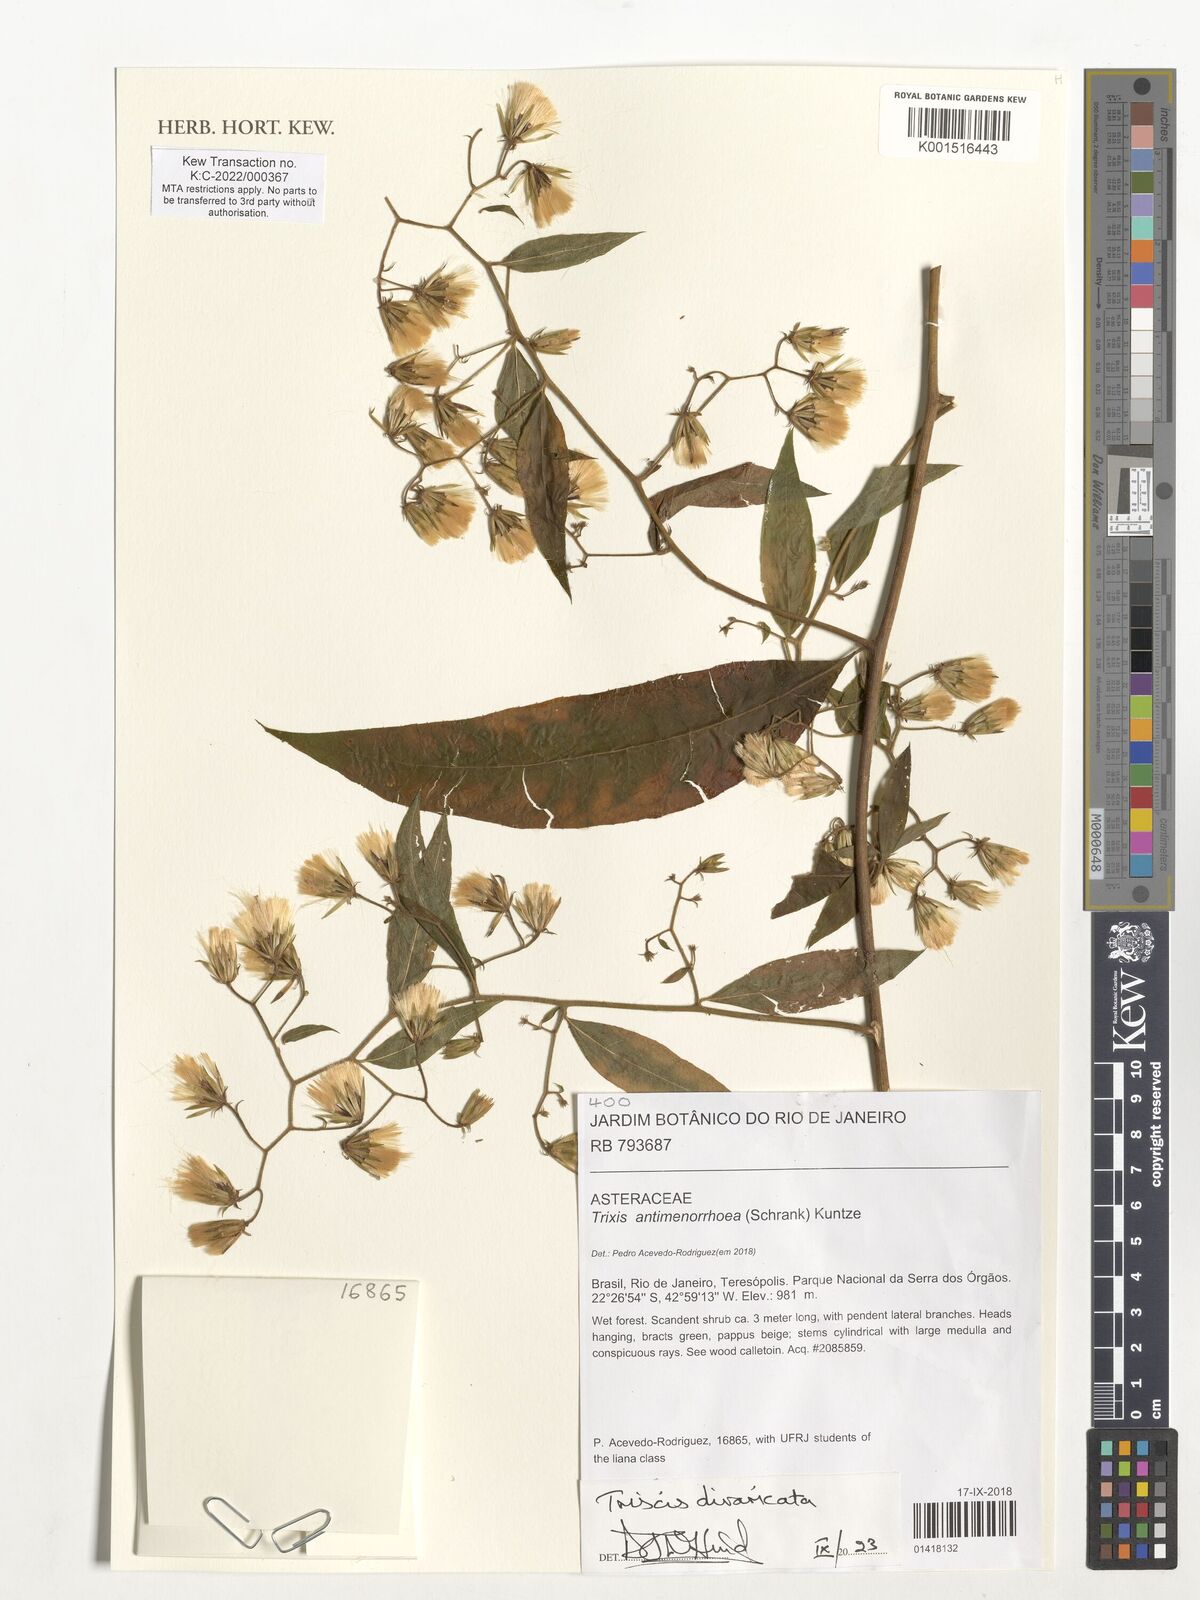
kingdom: Plantae
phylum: Tracheophyta
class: Magnoliopsida
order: Asterales
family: Asteraceae
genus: Trixis
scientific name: Trixis divaricata
